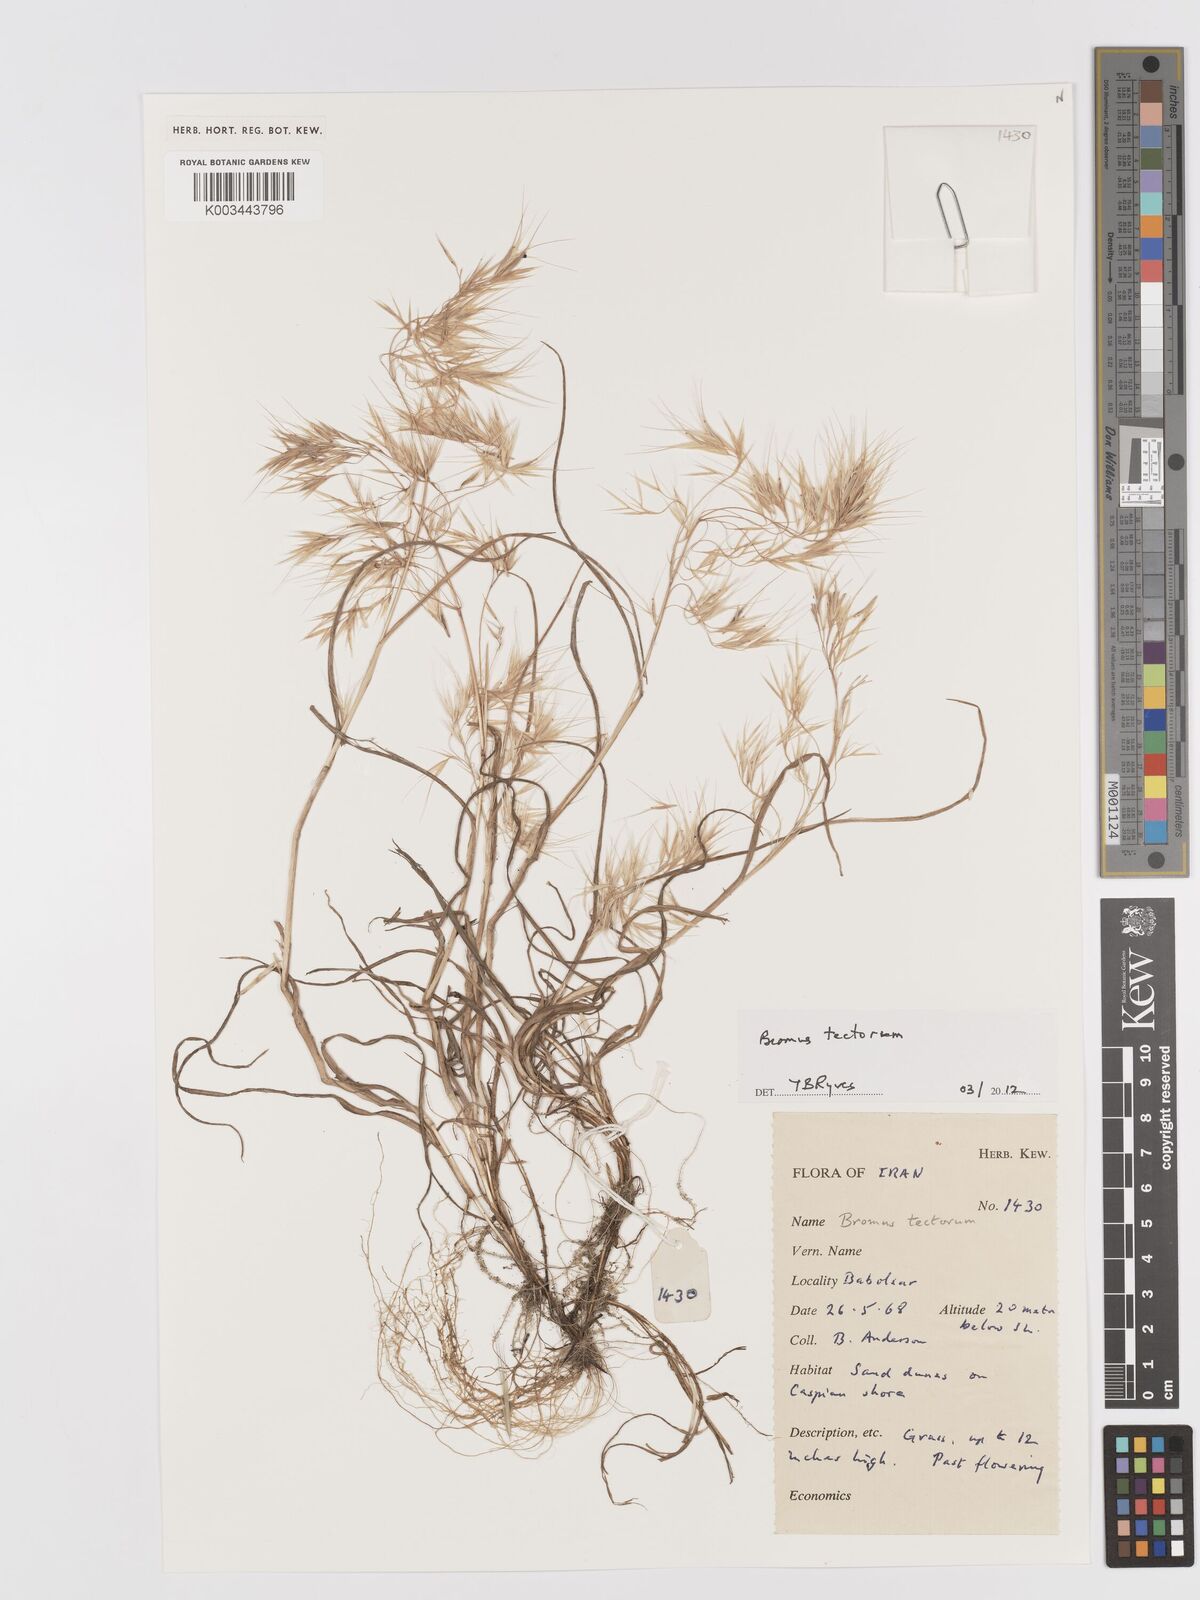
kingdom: Plantae
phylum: Tracheophyta
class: Liliopsida
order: Poales
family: Poaceae
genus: Bromus
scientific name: Bromus tectorum
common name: Cheatgrass
